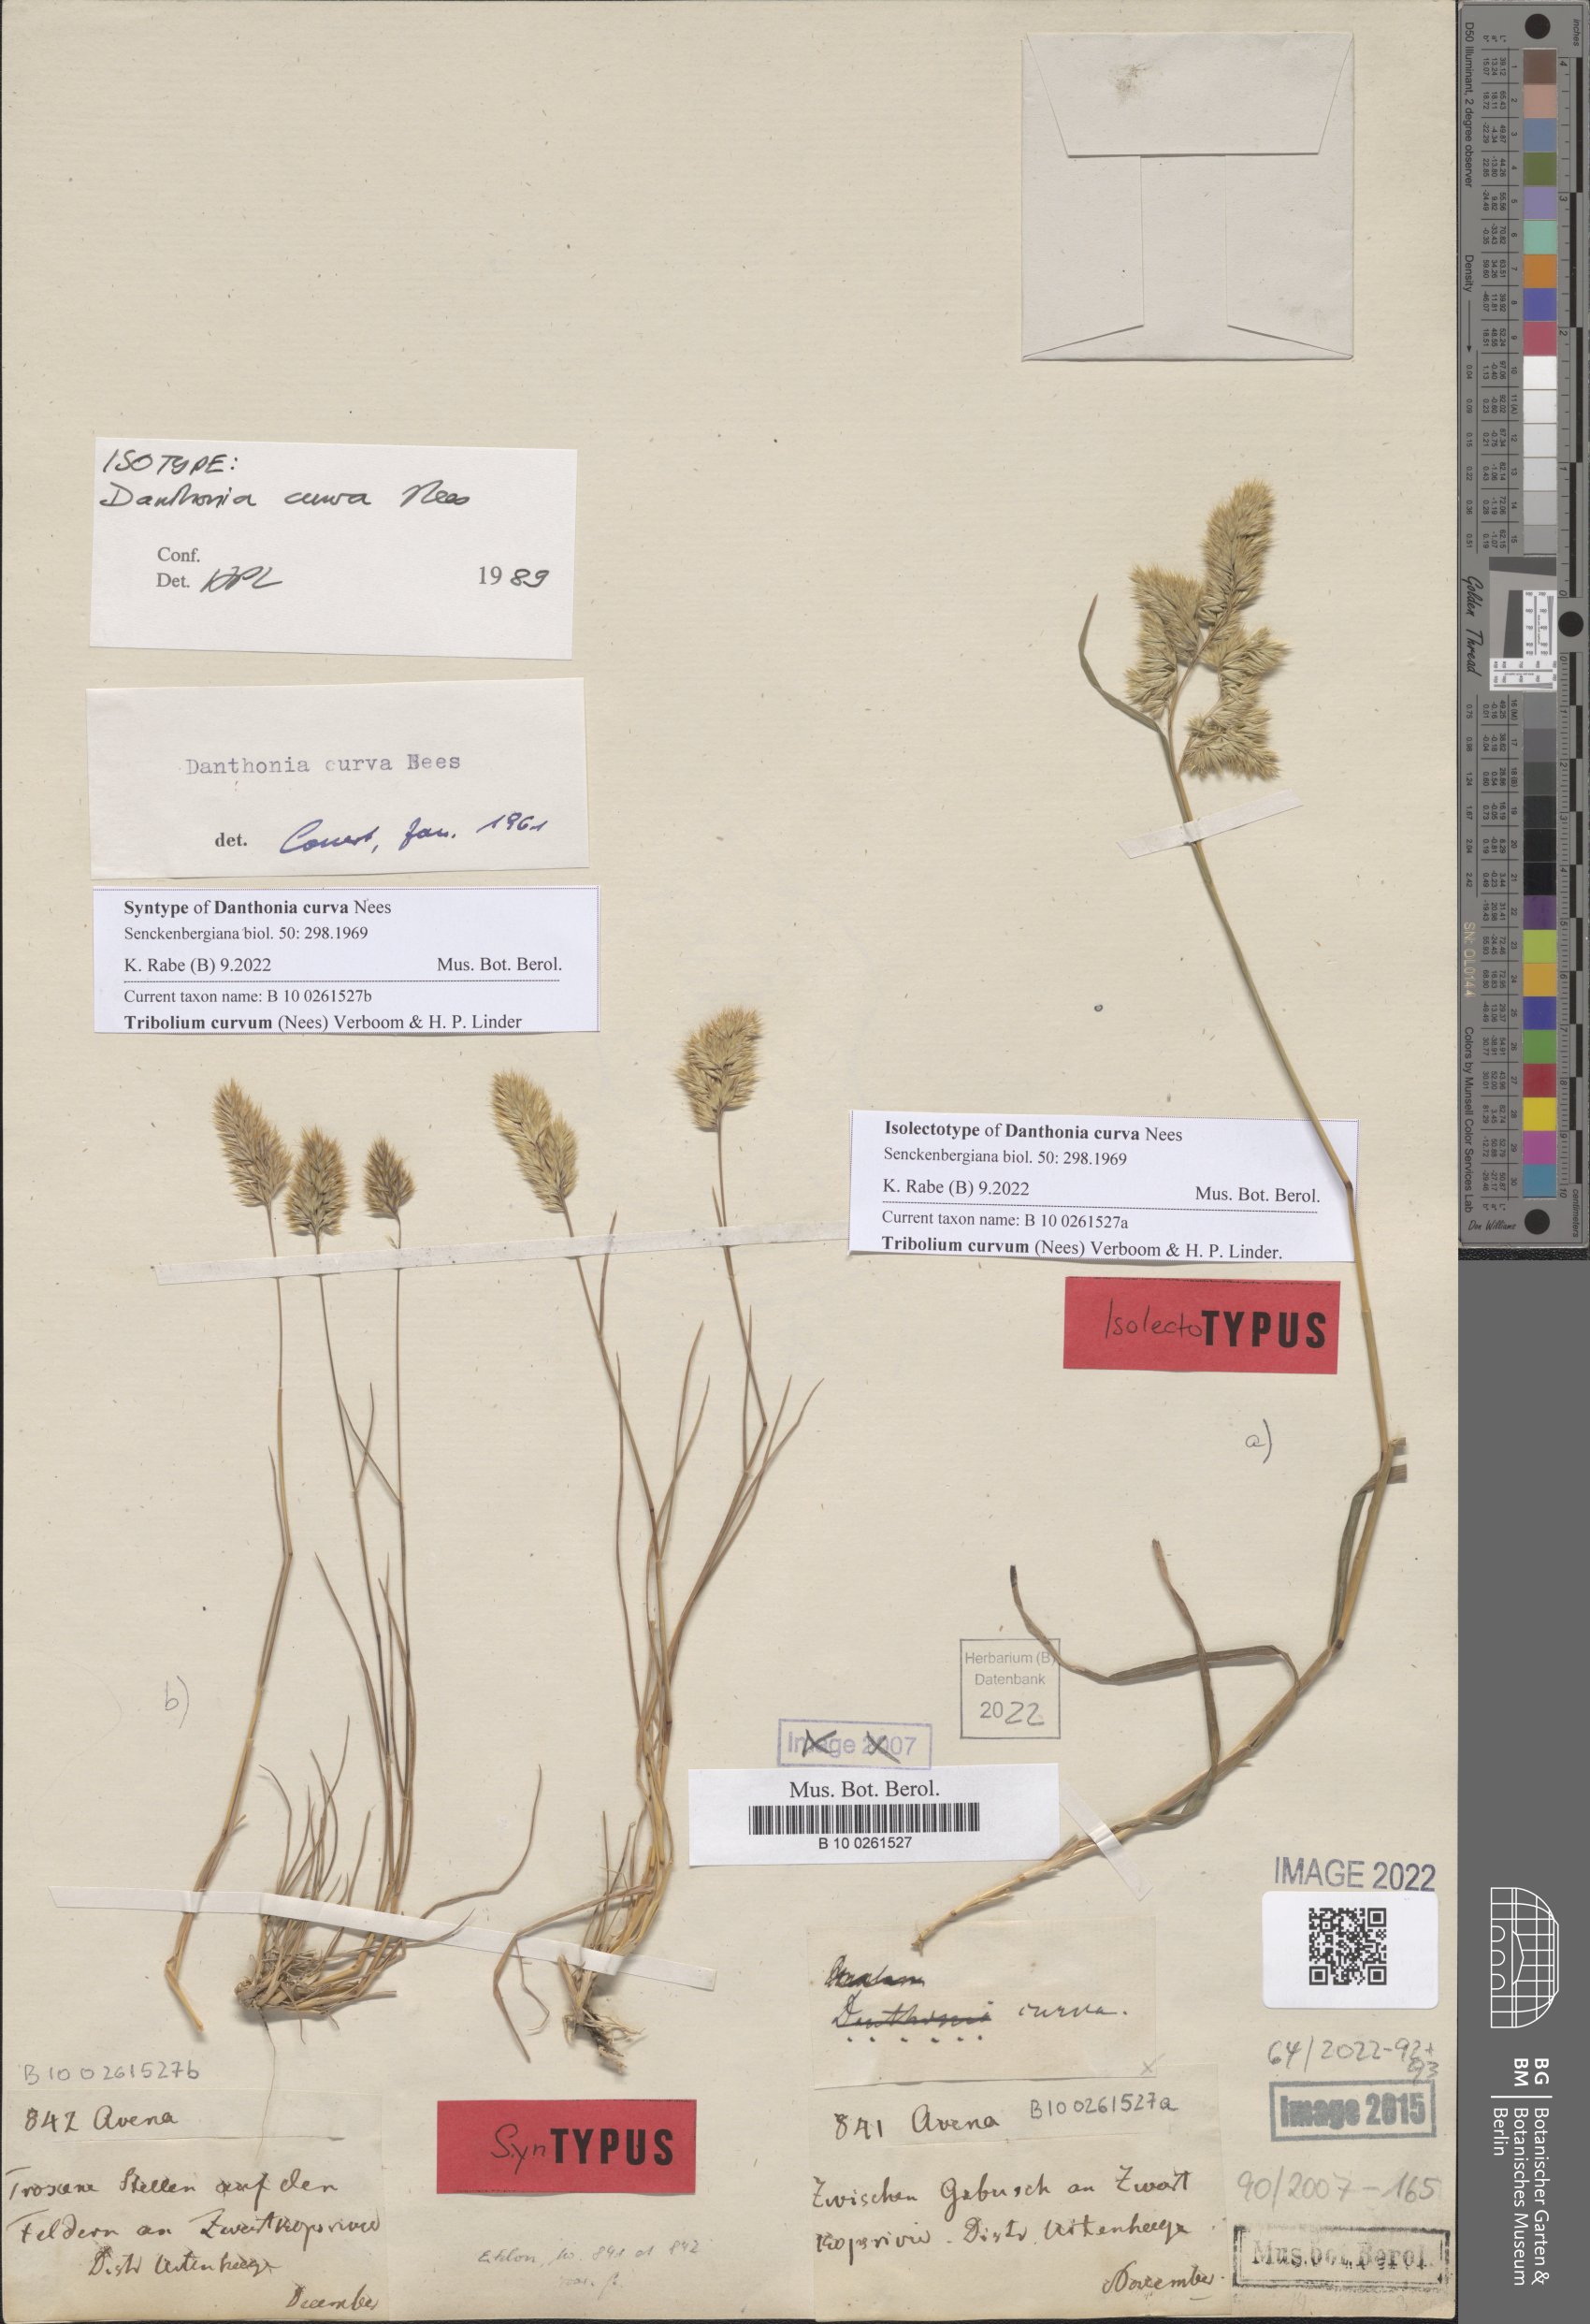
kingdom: Plantae
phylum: Tracheophyta
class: Liliopsida
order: Poales
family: Poaceae
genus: Tribolium
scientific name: Tribolium curvum
